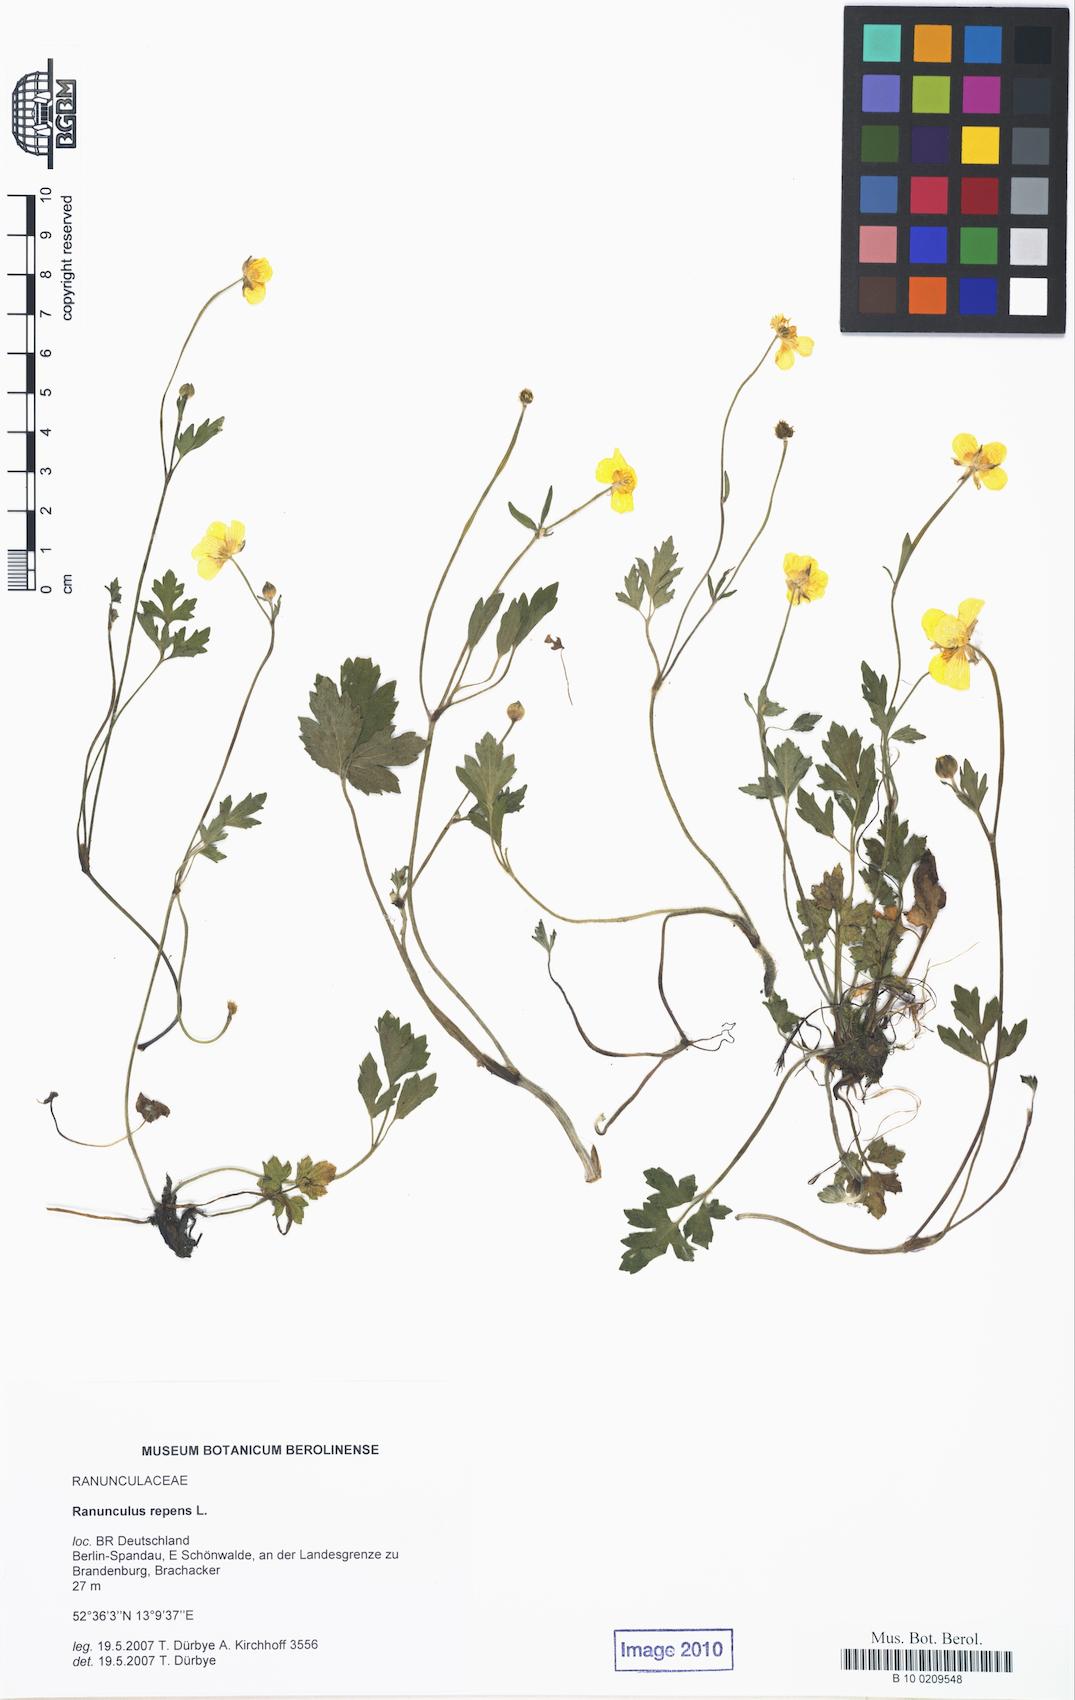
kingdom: Plantae
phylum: Tracheophyta
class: Magnoliopsida
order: Ranunculales
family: Ranunculaceae
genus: Ranunculus
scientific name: Ranunculus repens
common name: Creeping buttercup
